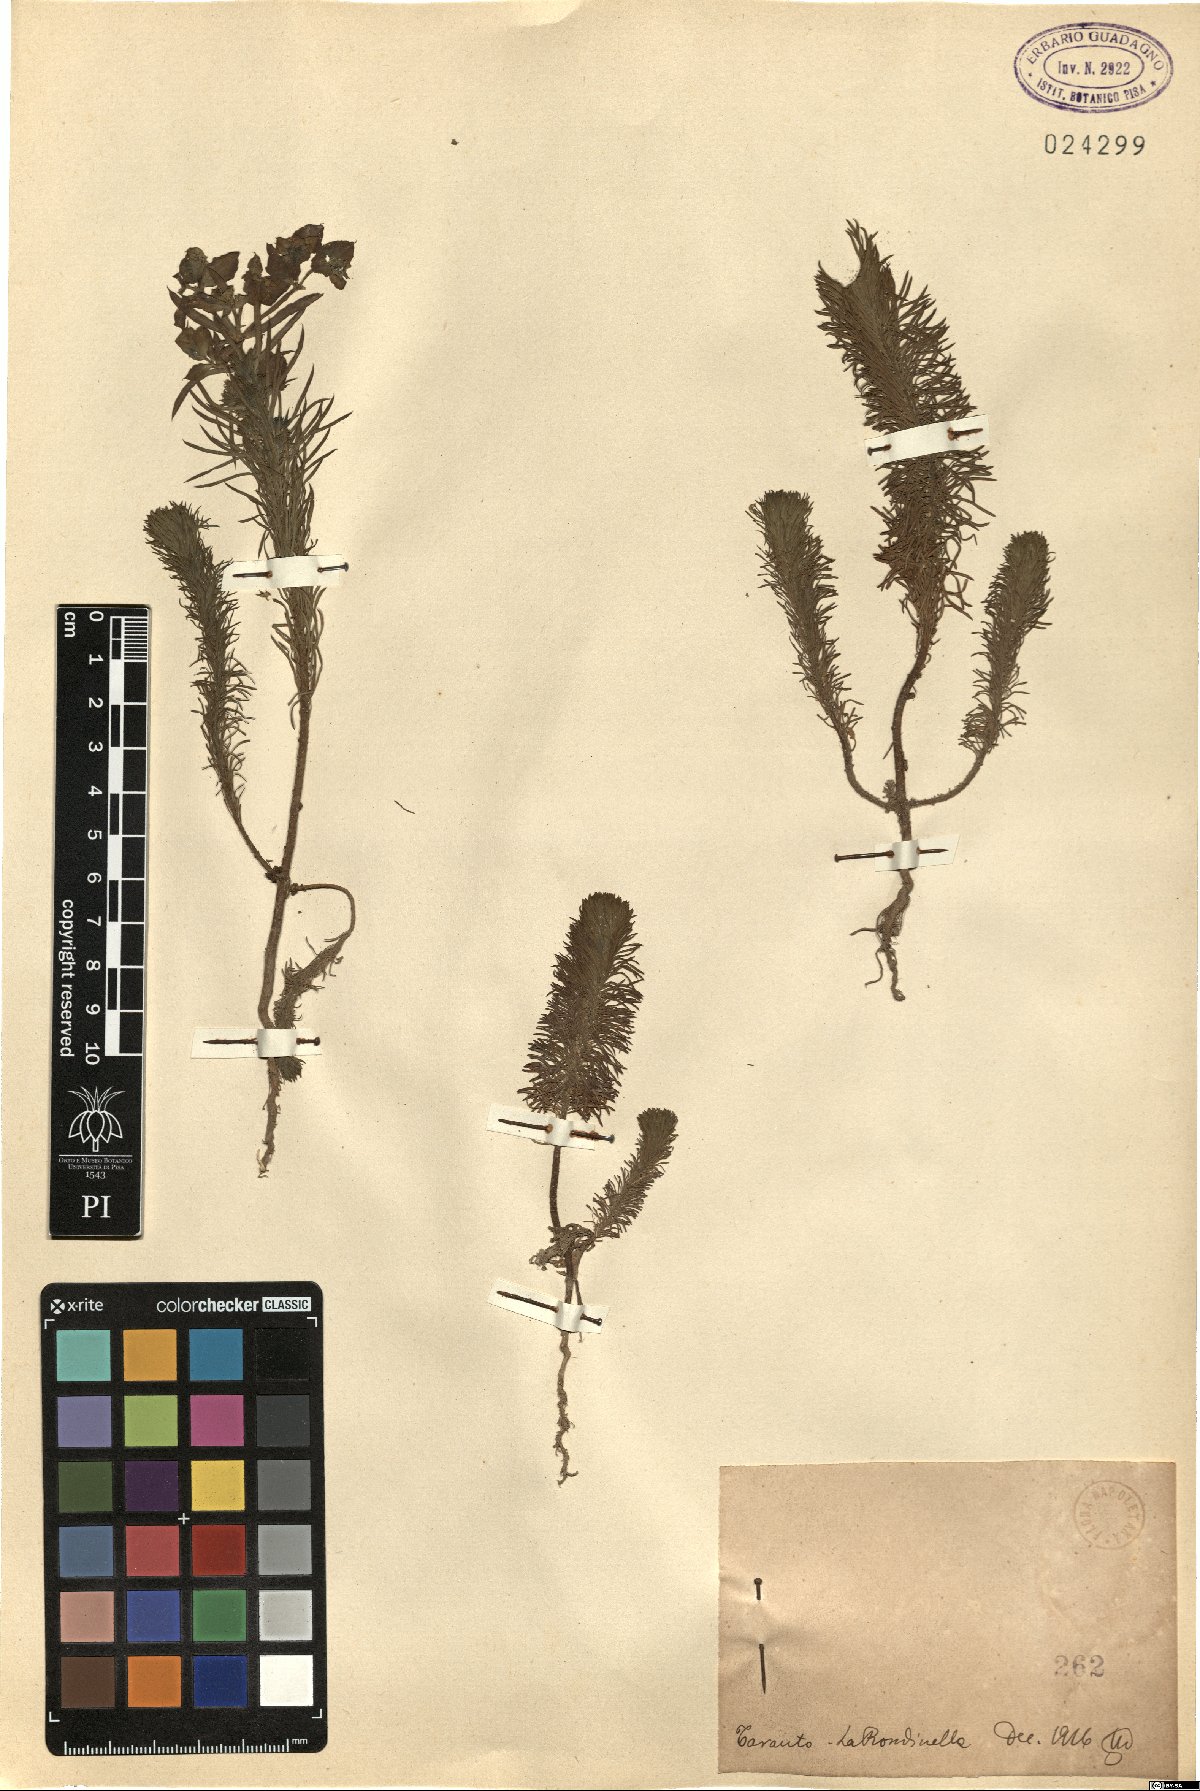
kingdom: Plantae
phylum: Tracheophyta
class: Magnoliopsida
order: Malpighiales
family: Euphorbiaceae
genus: Euphorbia
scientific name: Euphorbia
